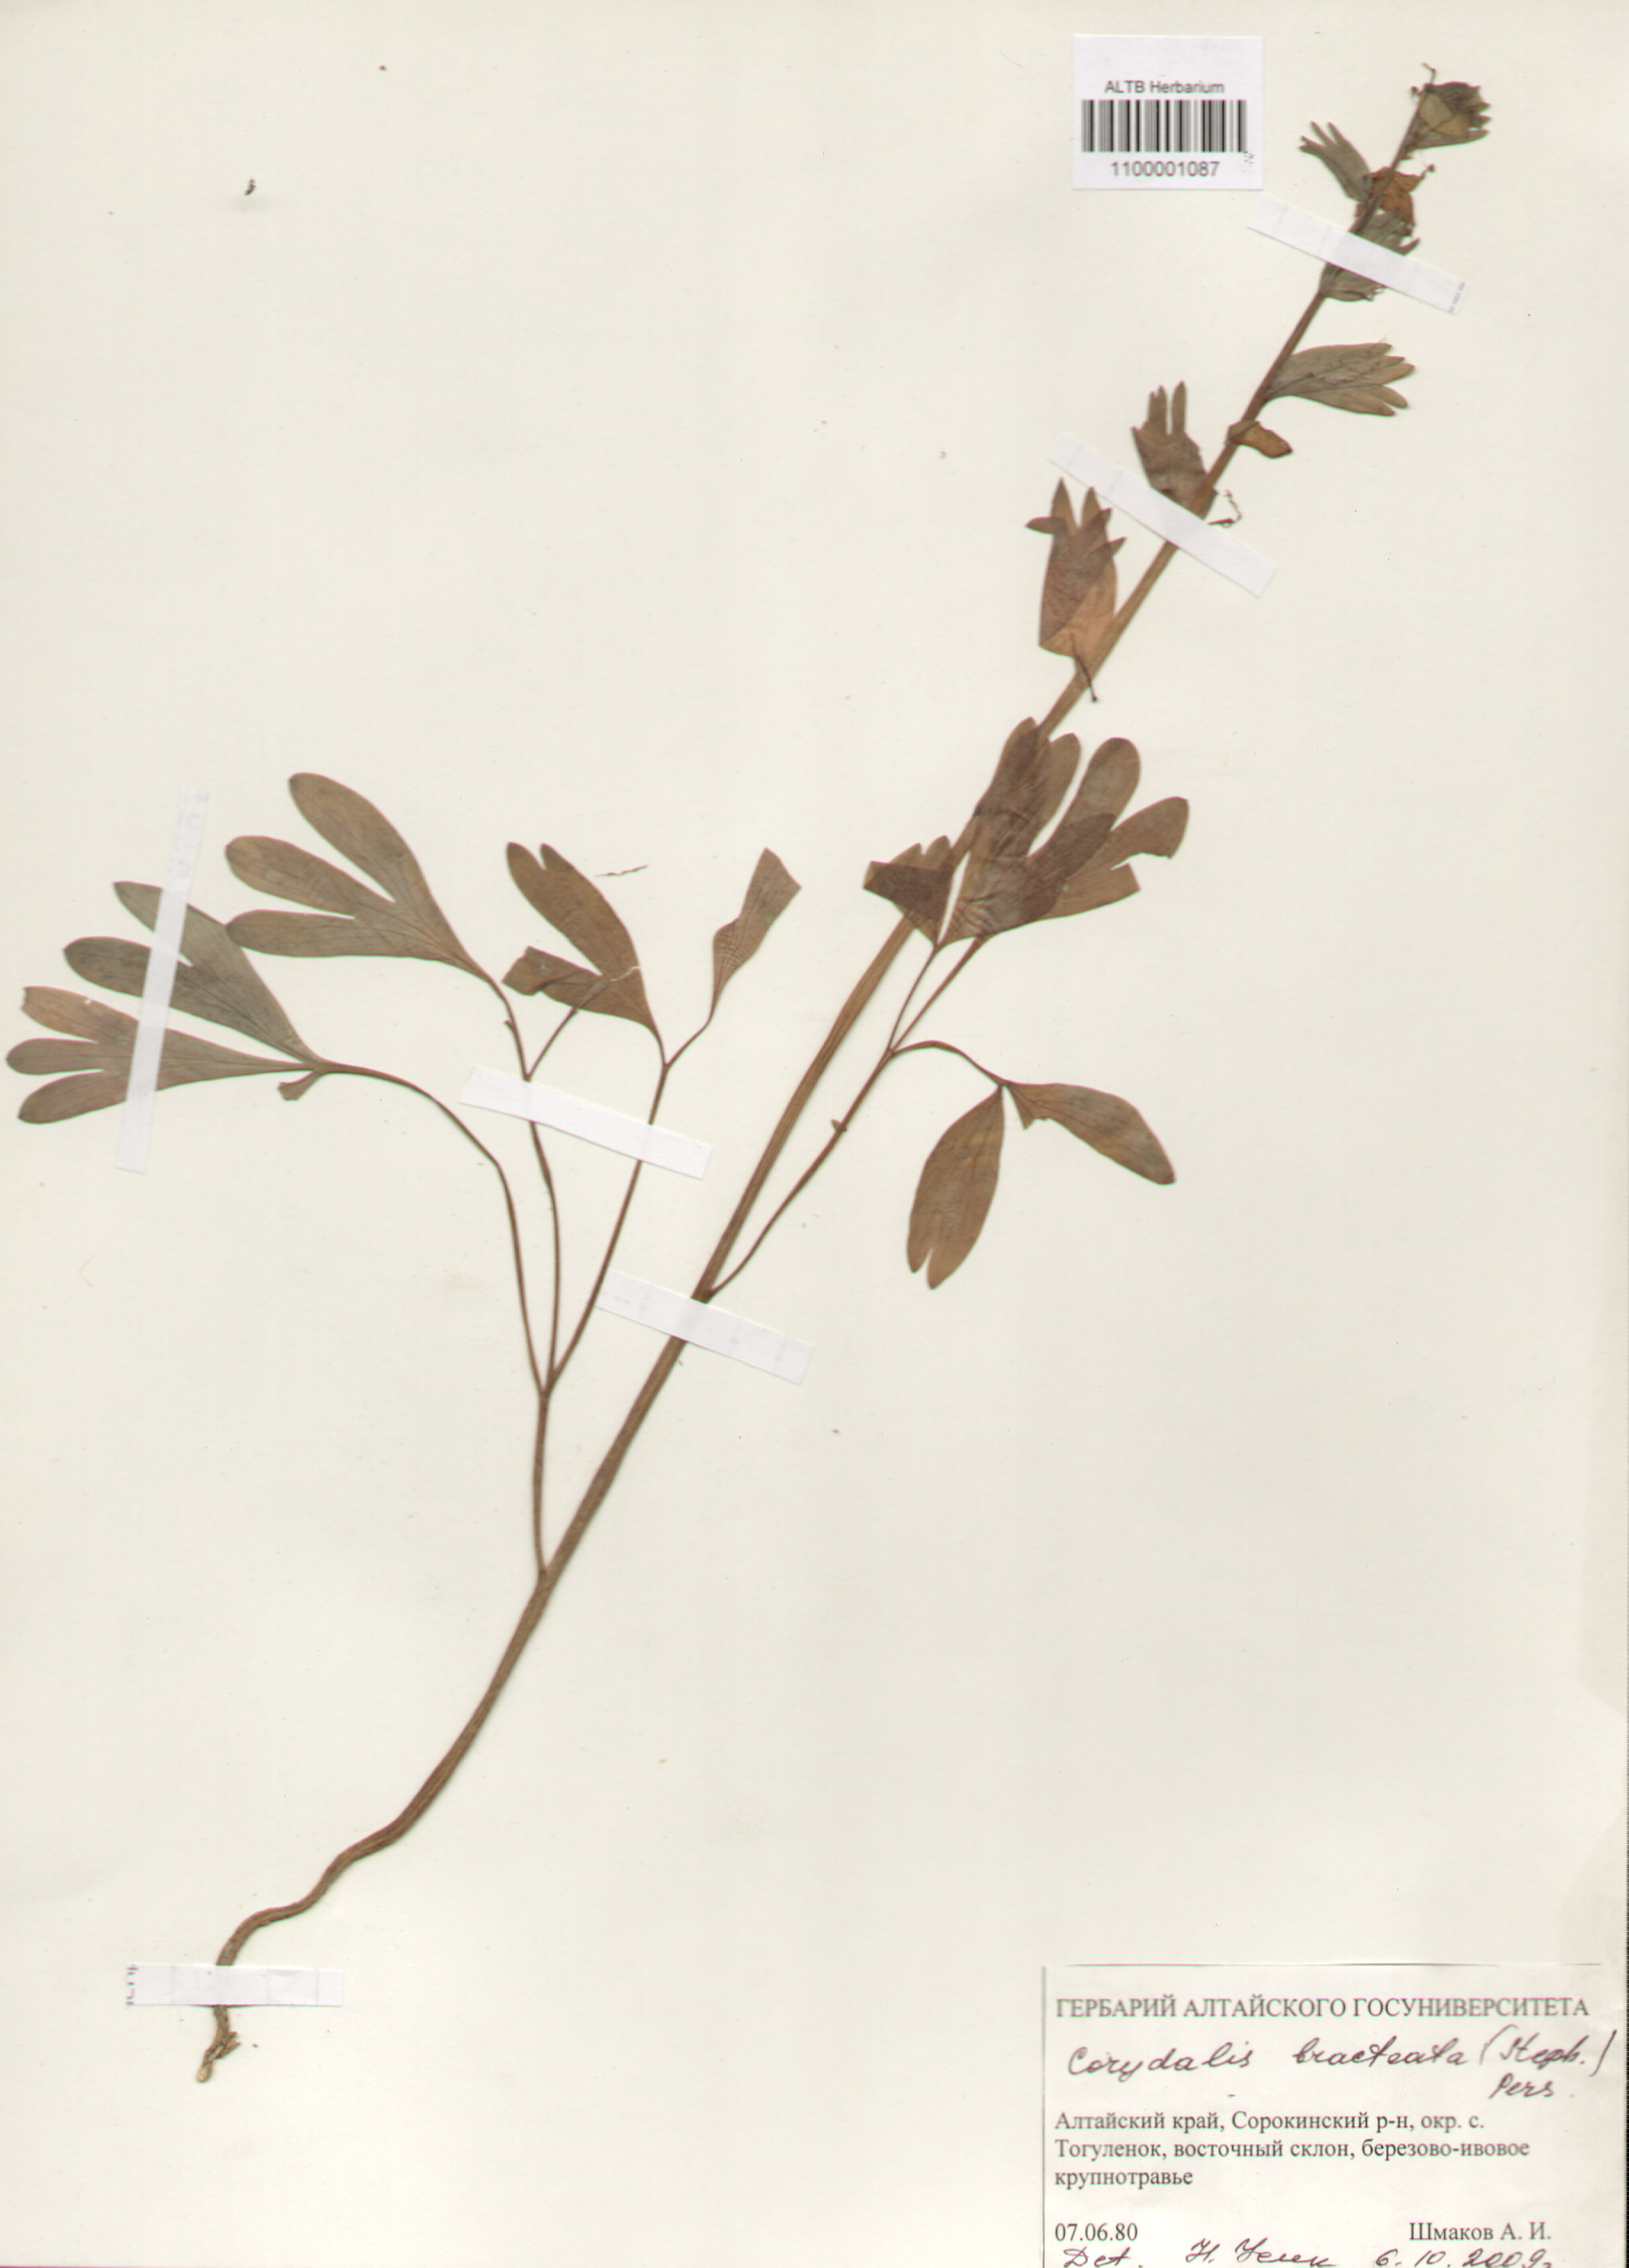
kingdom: Plantae
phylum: Tracheophyta
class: Magnoliopsida
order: Ranunculales
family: Papaveraceae
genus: Corydalis
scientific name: Corydalis bracteata
